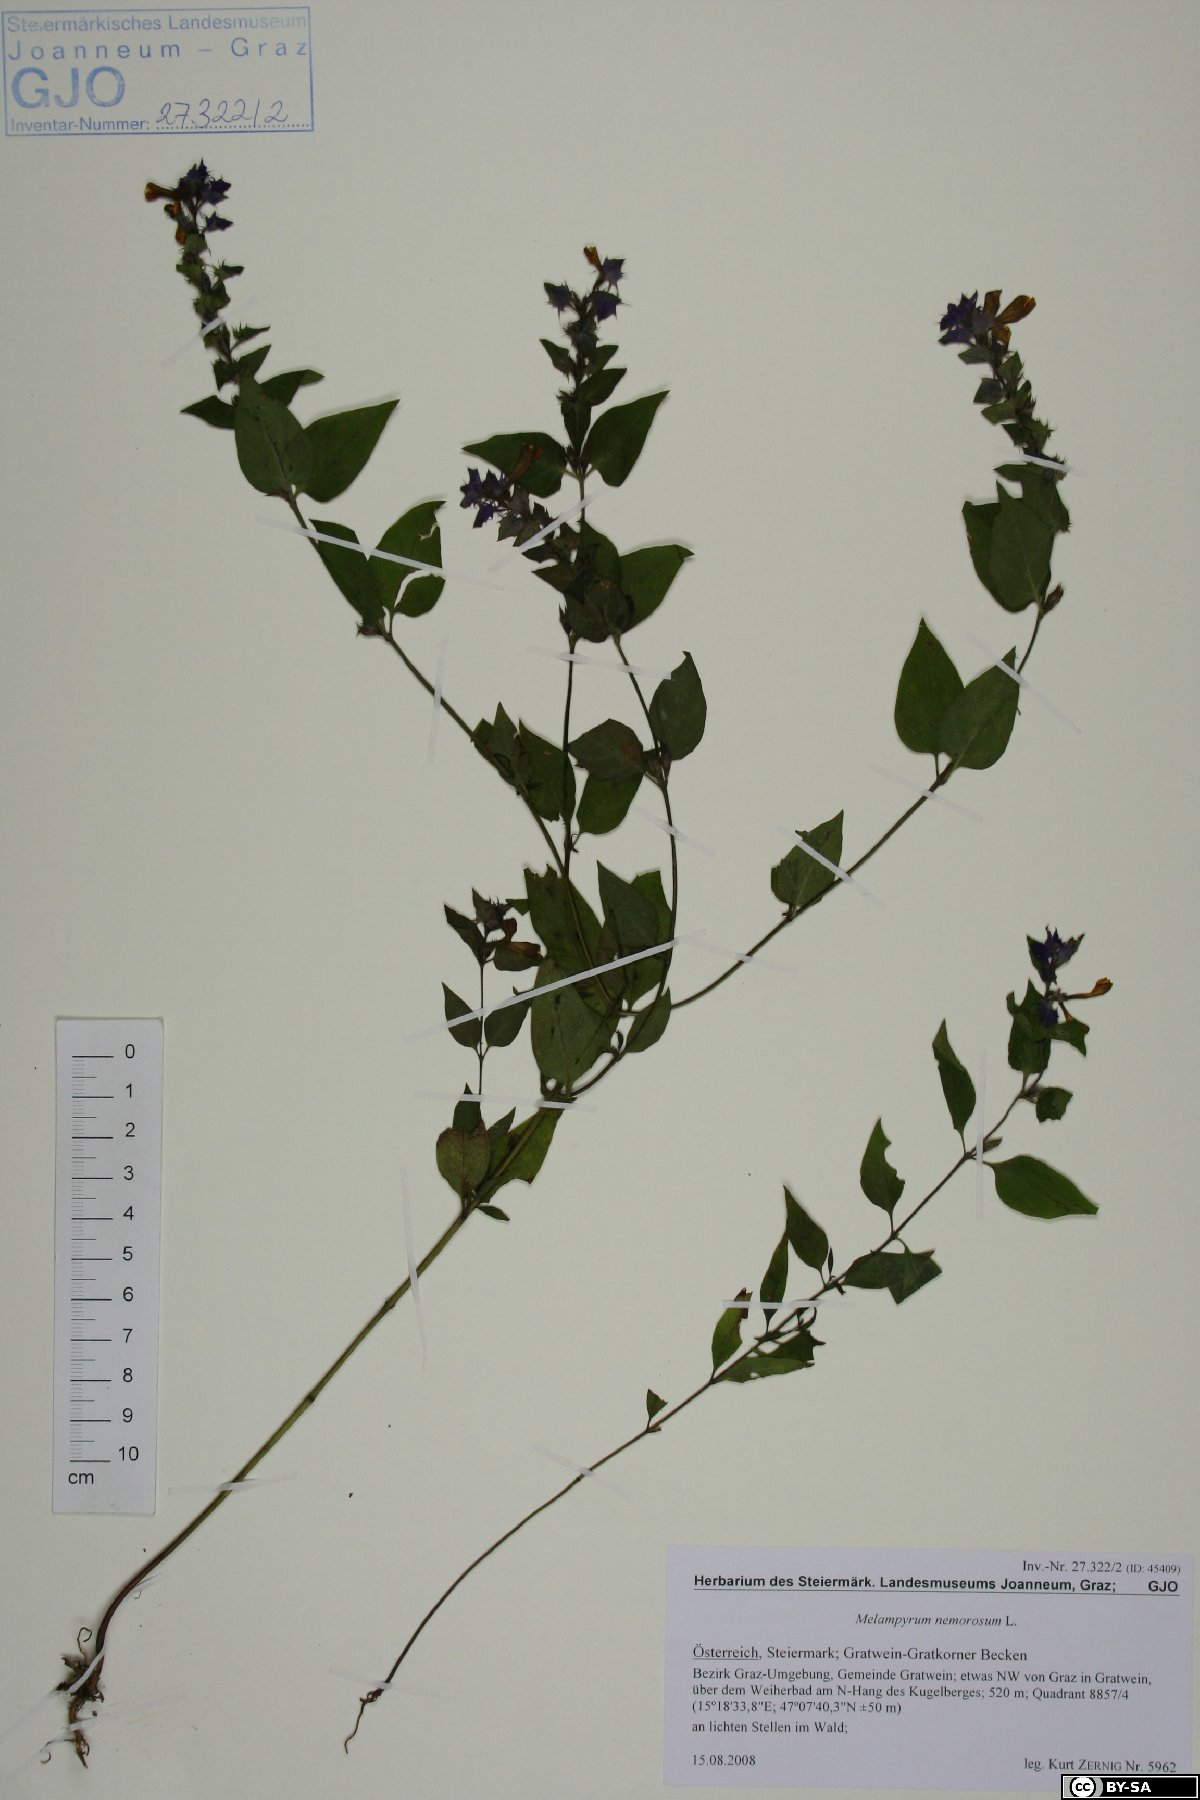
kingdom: Plantae
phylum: Tracheophyta
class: Magnoliopsida
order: Lamiales
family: Orobanchaceae
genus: Melampyrum
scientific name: Melampyrum nemorosum
